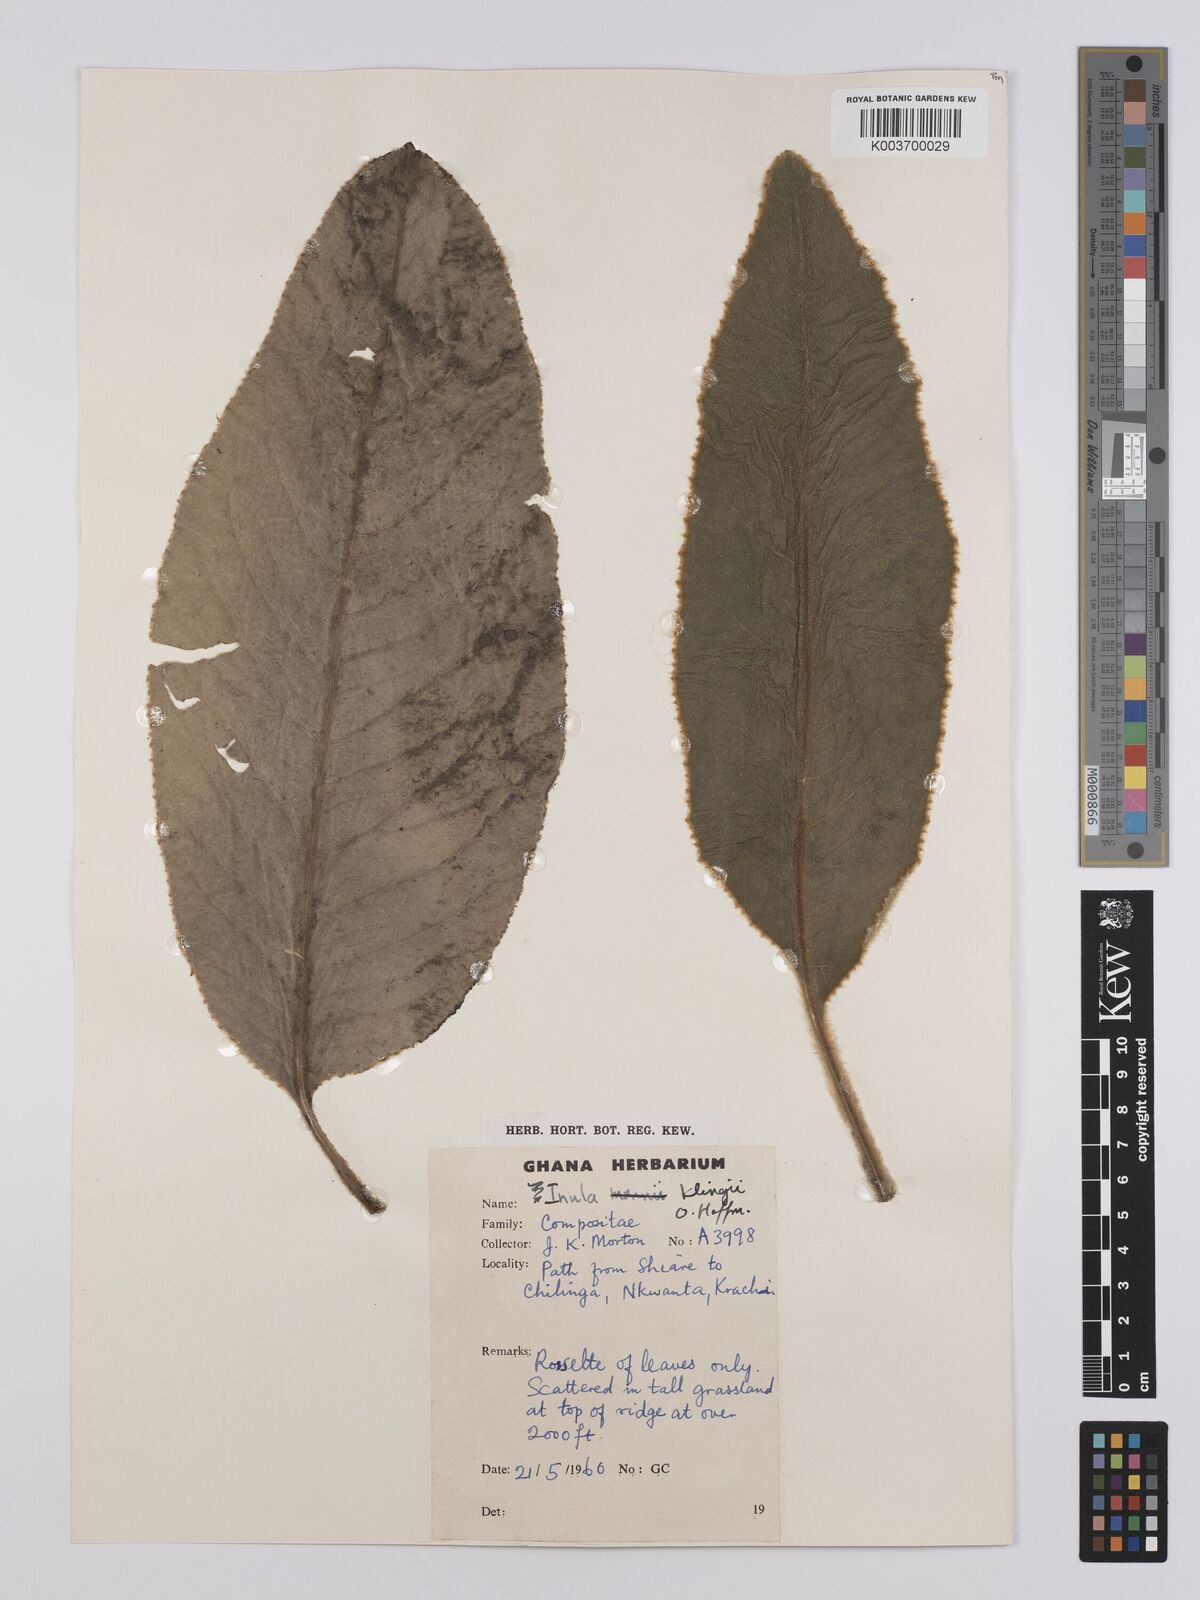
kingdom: Plantae
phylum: Tracheophyta
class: Magnoliopsida
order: Asterales
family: Asteraceae
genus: Inula
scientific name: Inula klingii
